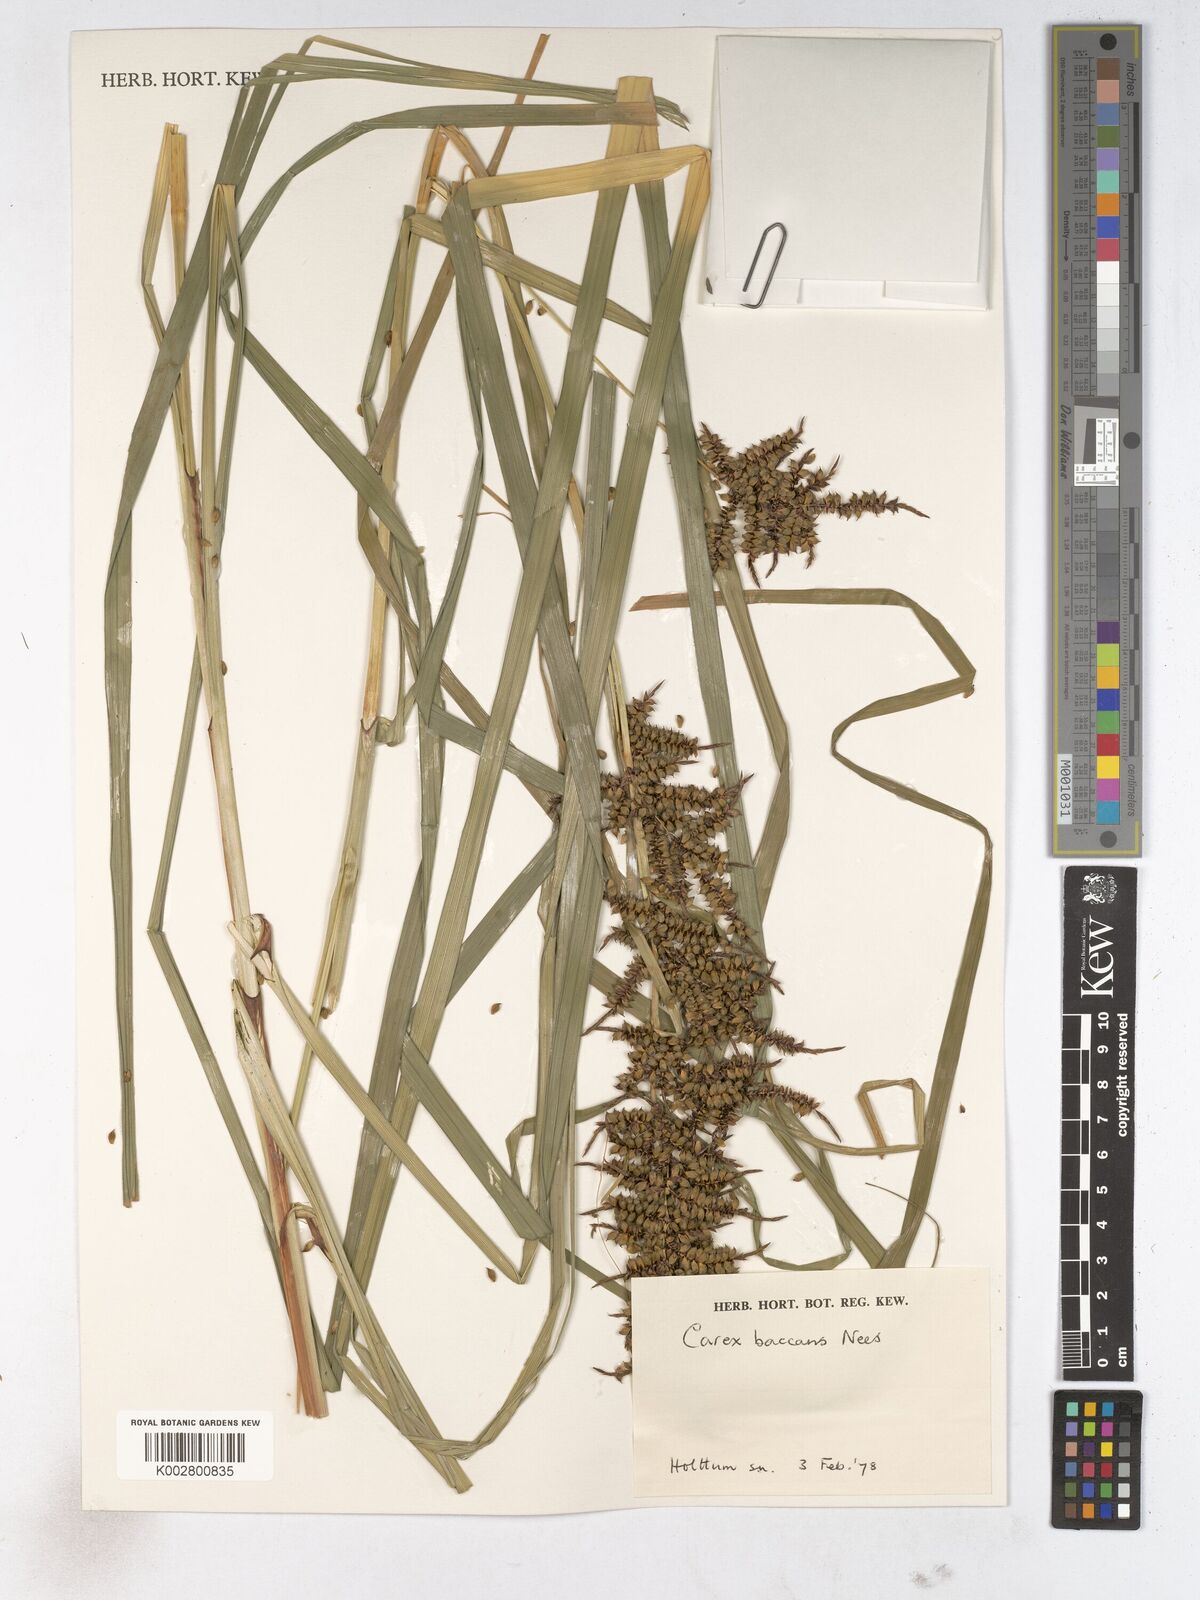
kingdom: Plantae
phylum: Tracheophyta
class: Liliopsida
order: Poales
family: Cyperaceae
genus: Carex
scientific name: Carex baccans
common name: Crimson seeded sedge
